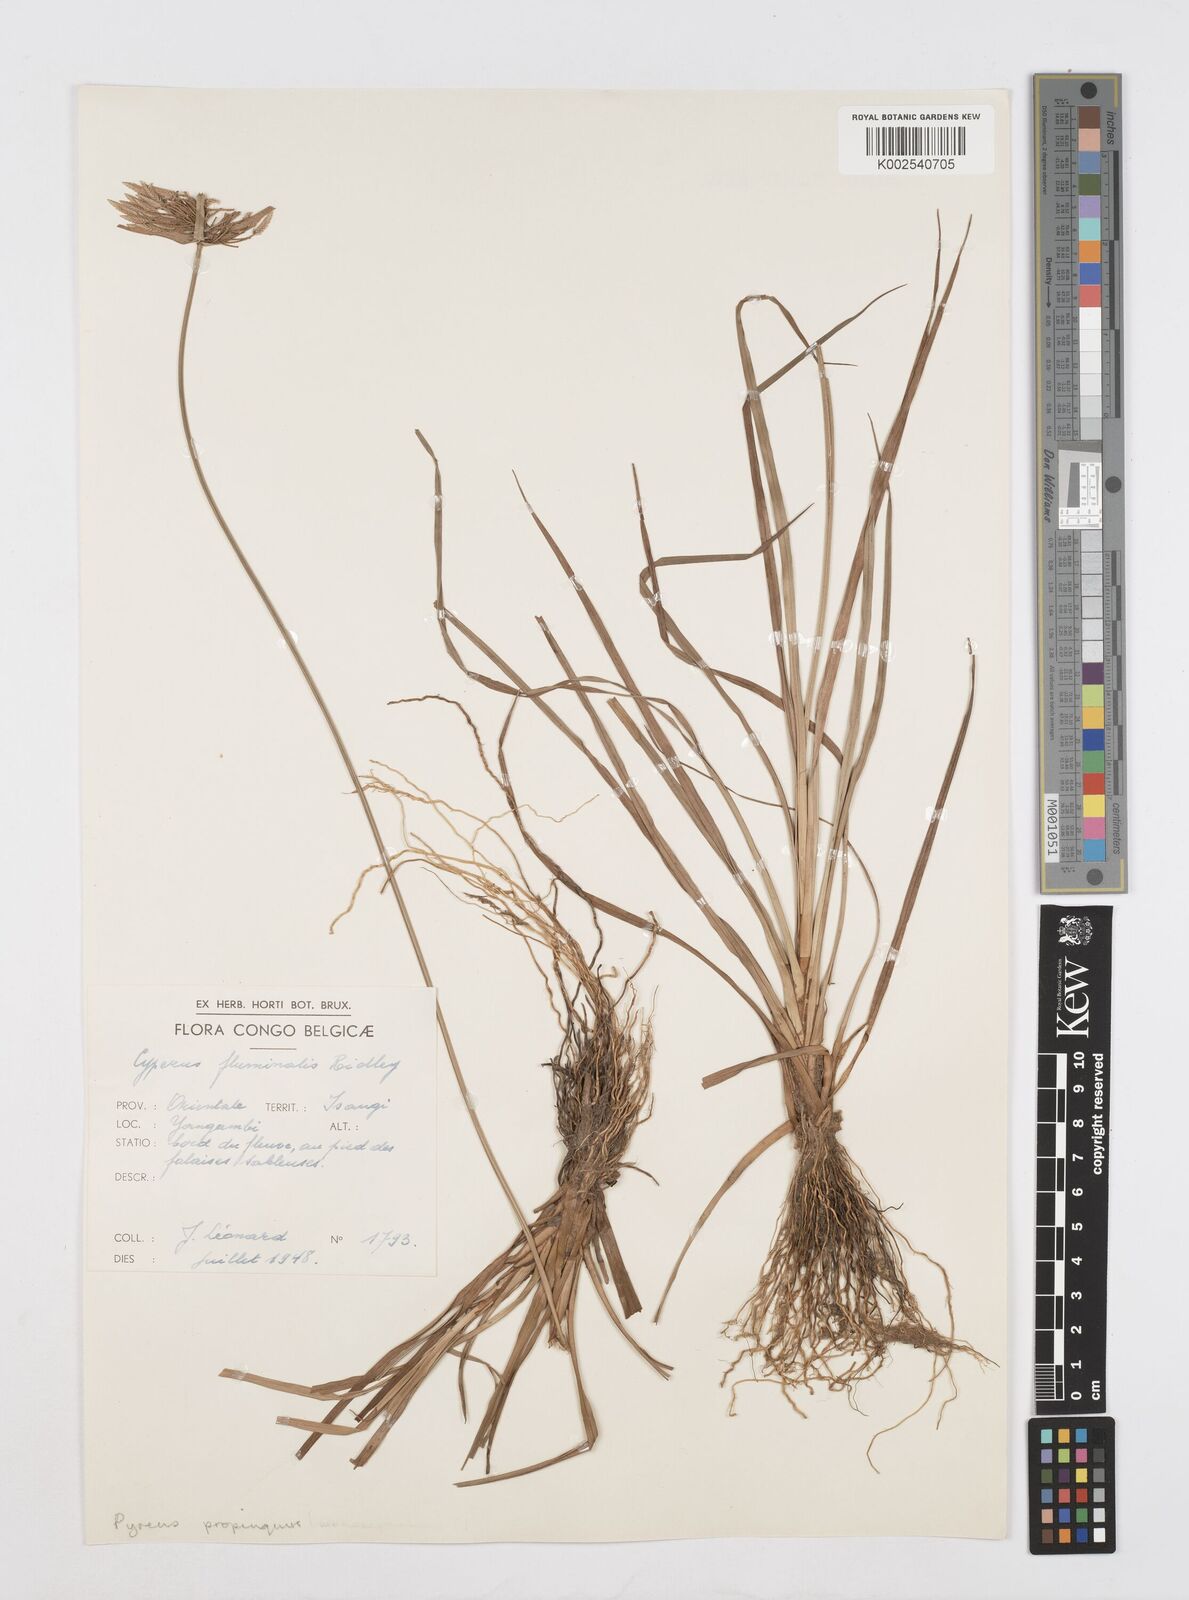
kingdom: Plantae
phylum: Tracheophyta
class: Liliopsida
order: Poales
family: Cyperaceae
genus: Cyperus
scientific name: Cyperus smithianus
